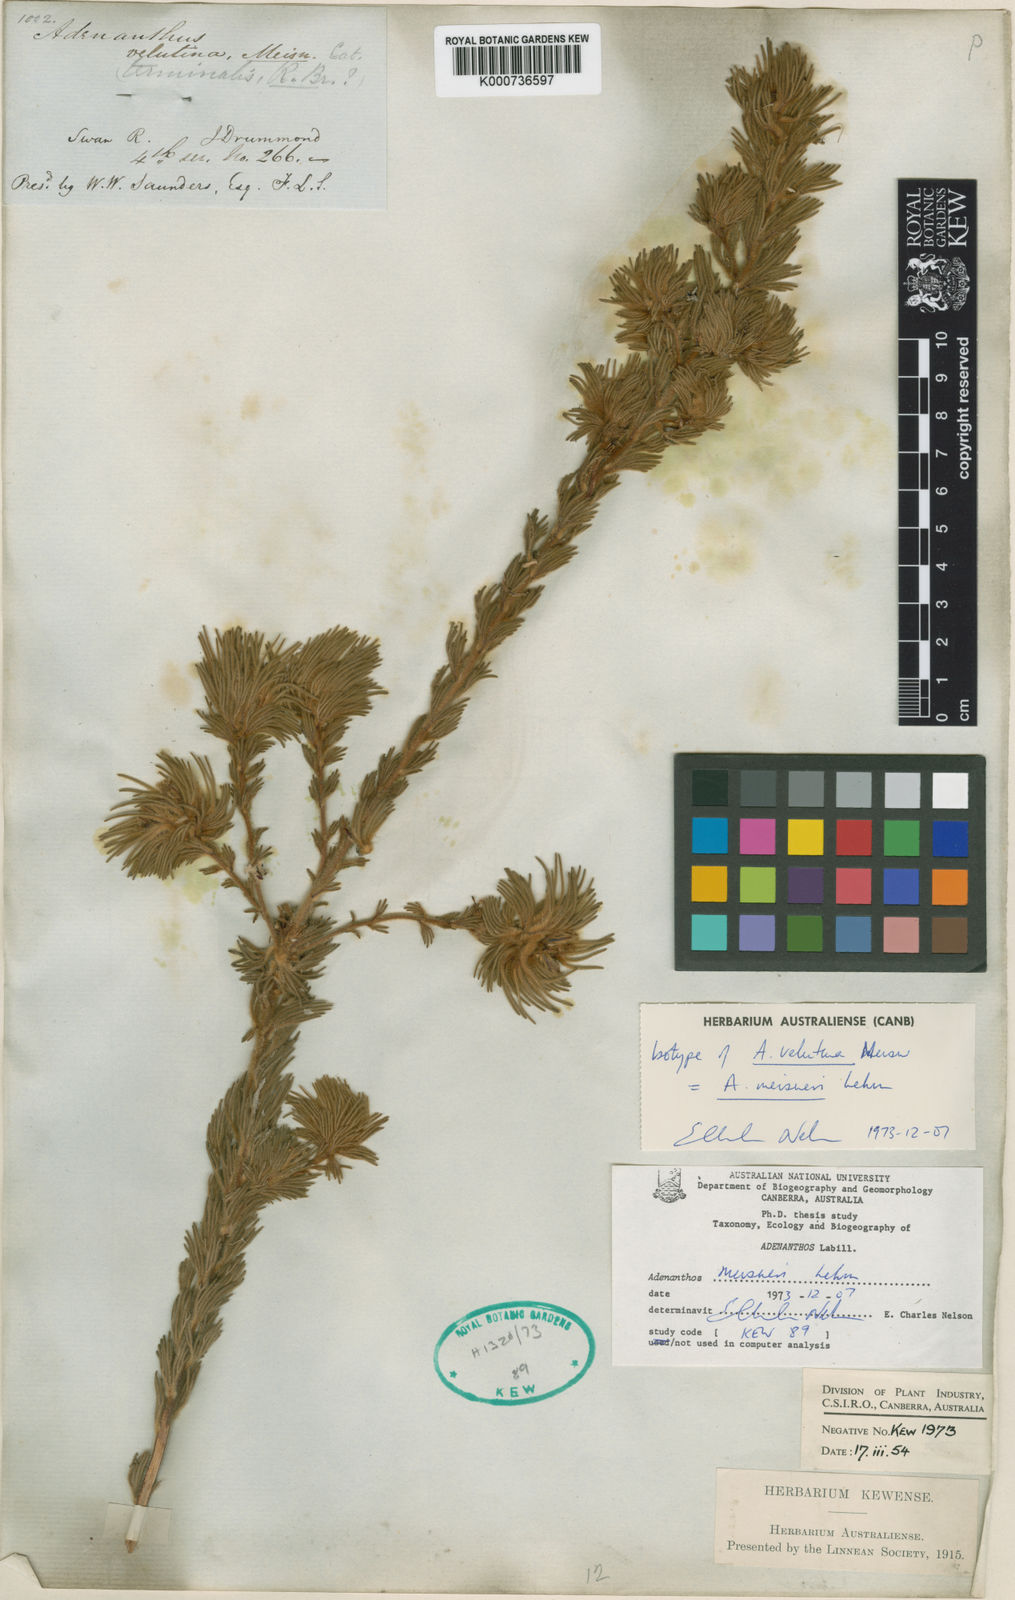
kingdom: Plantae
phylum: Tracheophyta
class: Magnoliopsida
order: Proteales
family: Proteaceae
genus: Adenanthos
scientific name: Adenanthos velutinus
